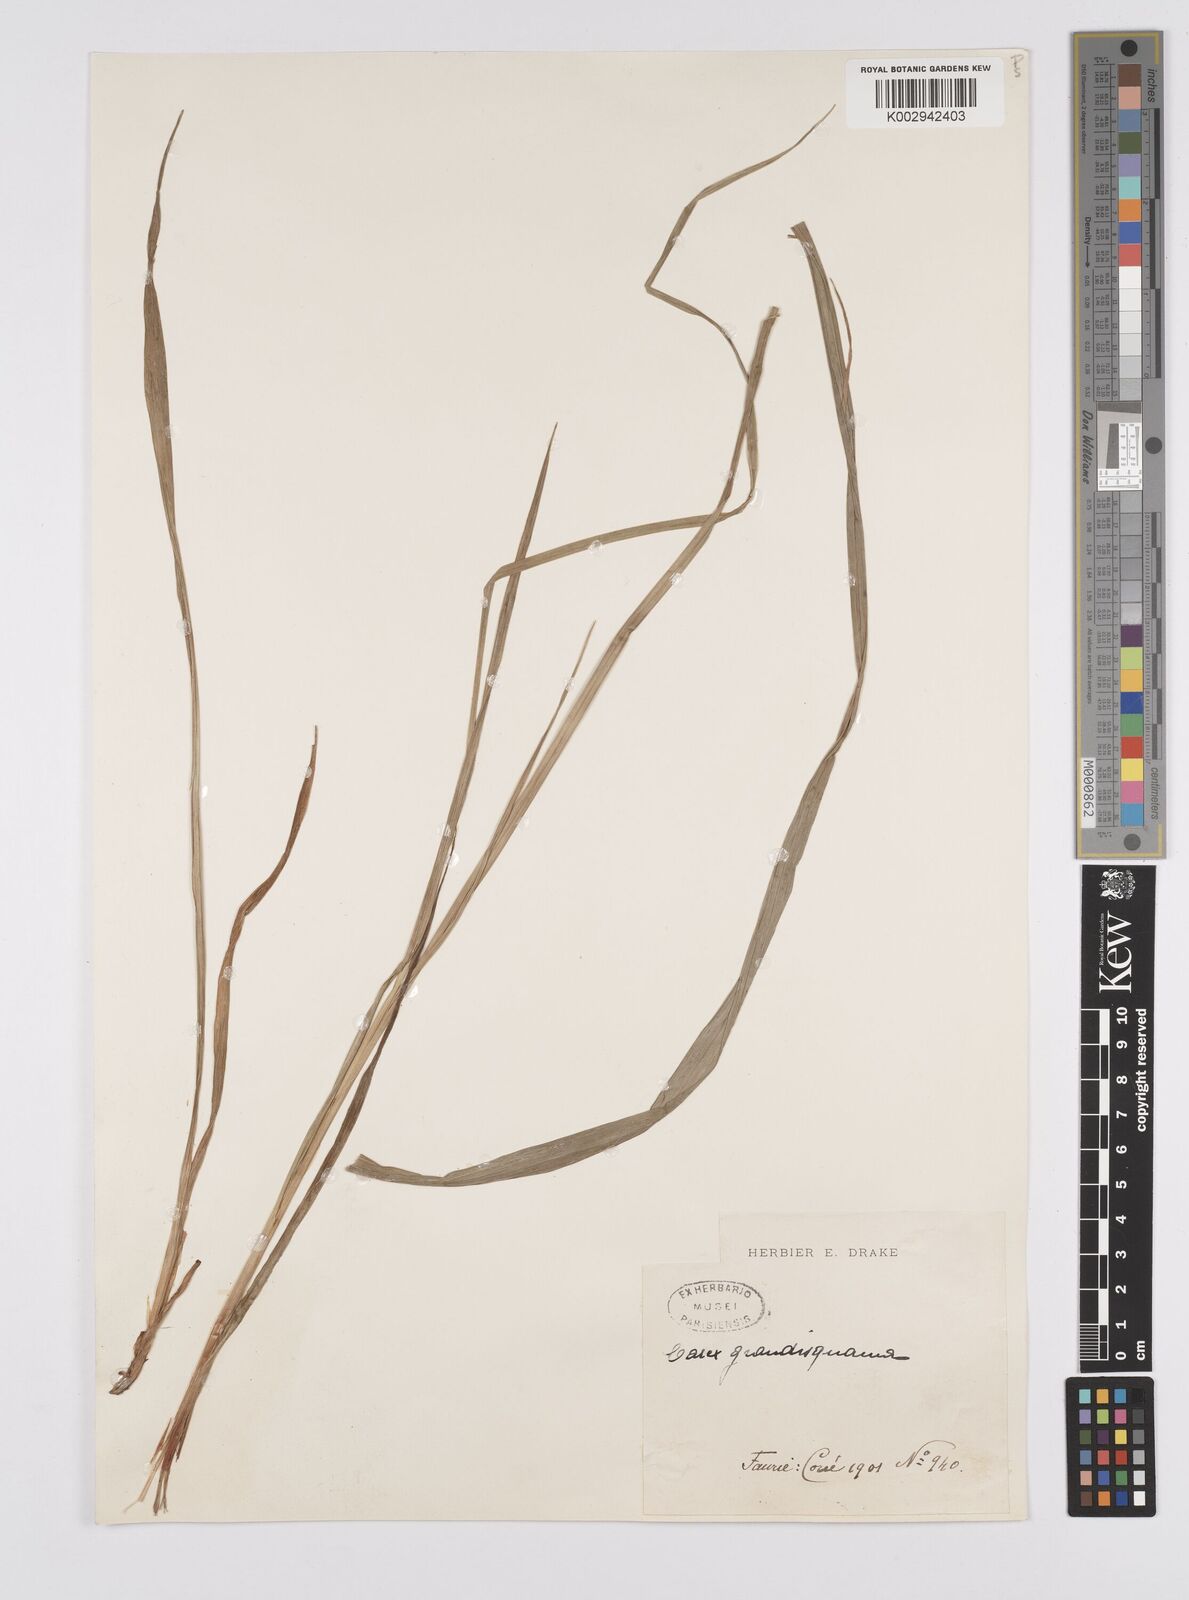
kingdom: Plantae
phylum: Tracheophyta
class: Liliopsida
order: Poales
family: Cyperaceae
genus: Carex
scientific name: Carex papulosa
